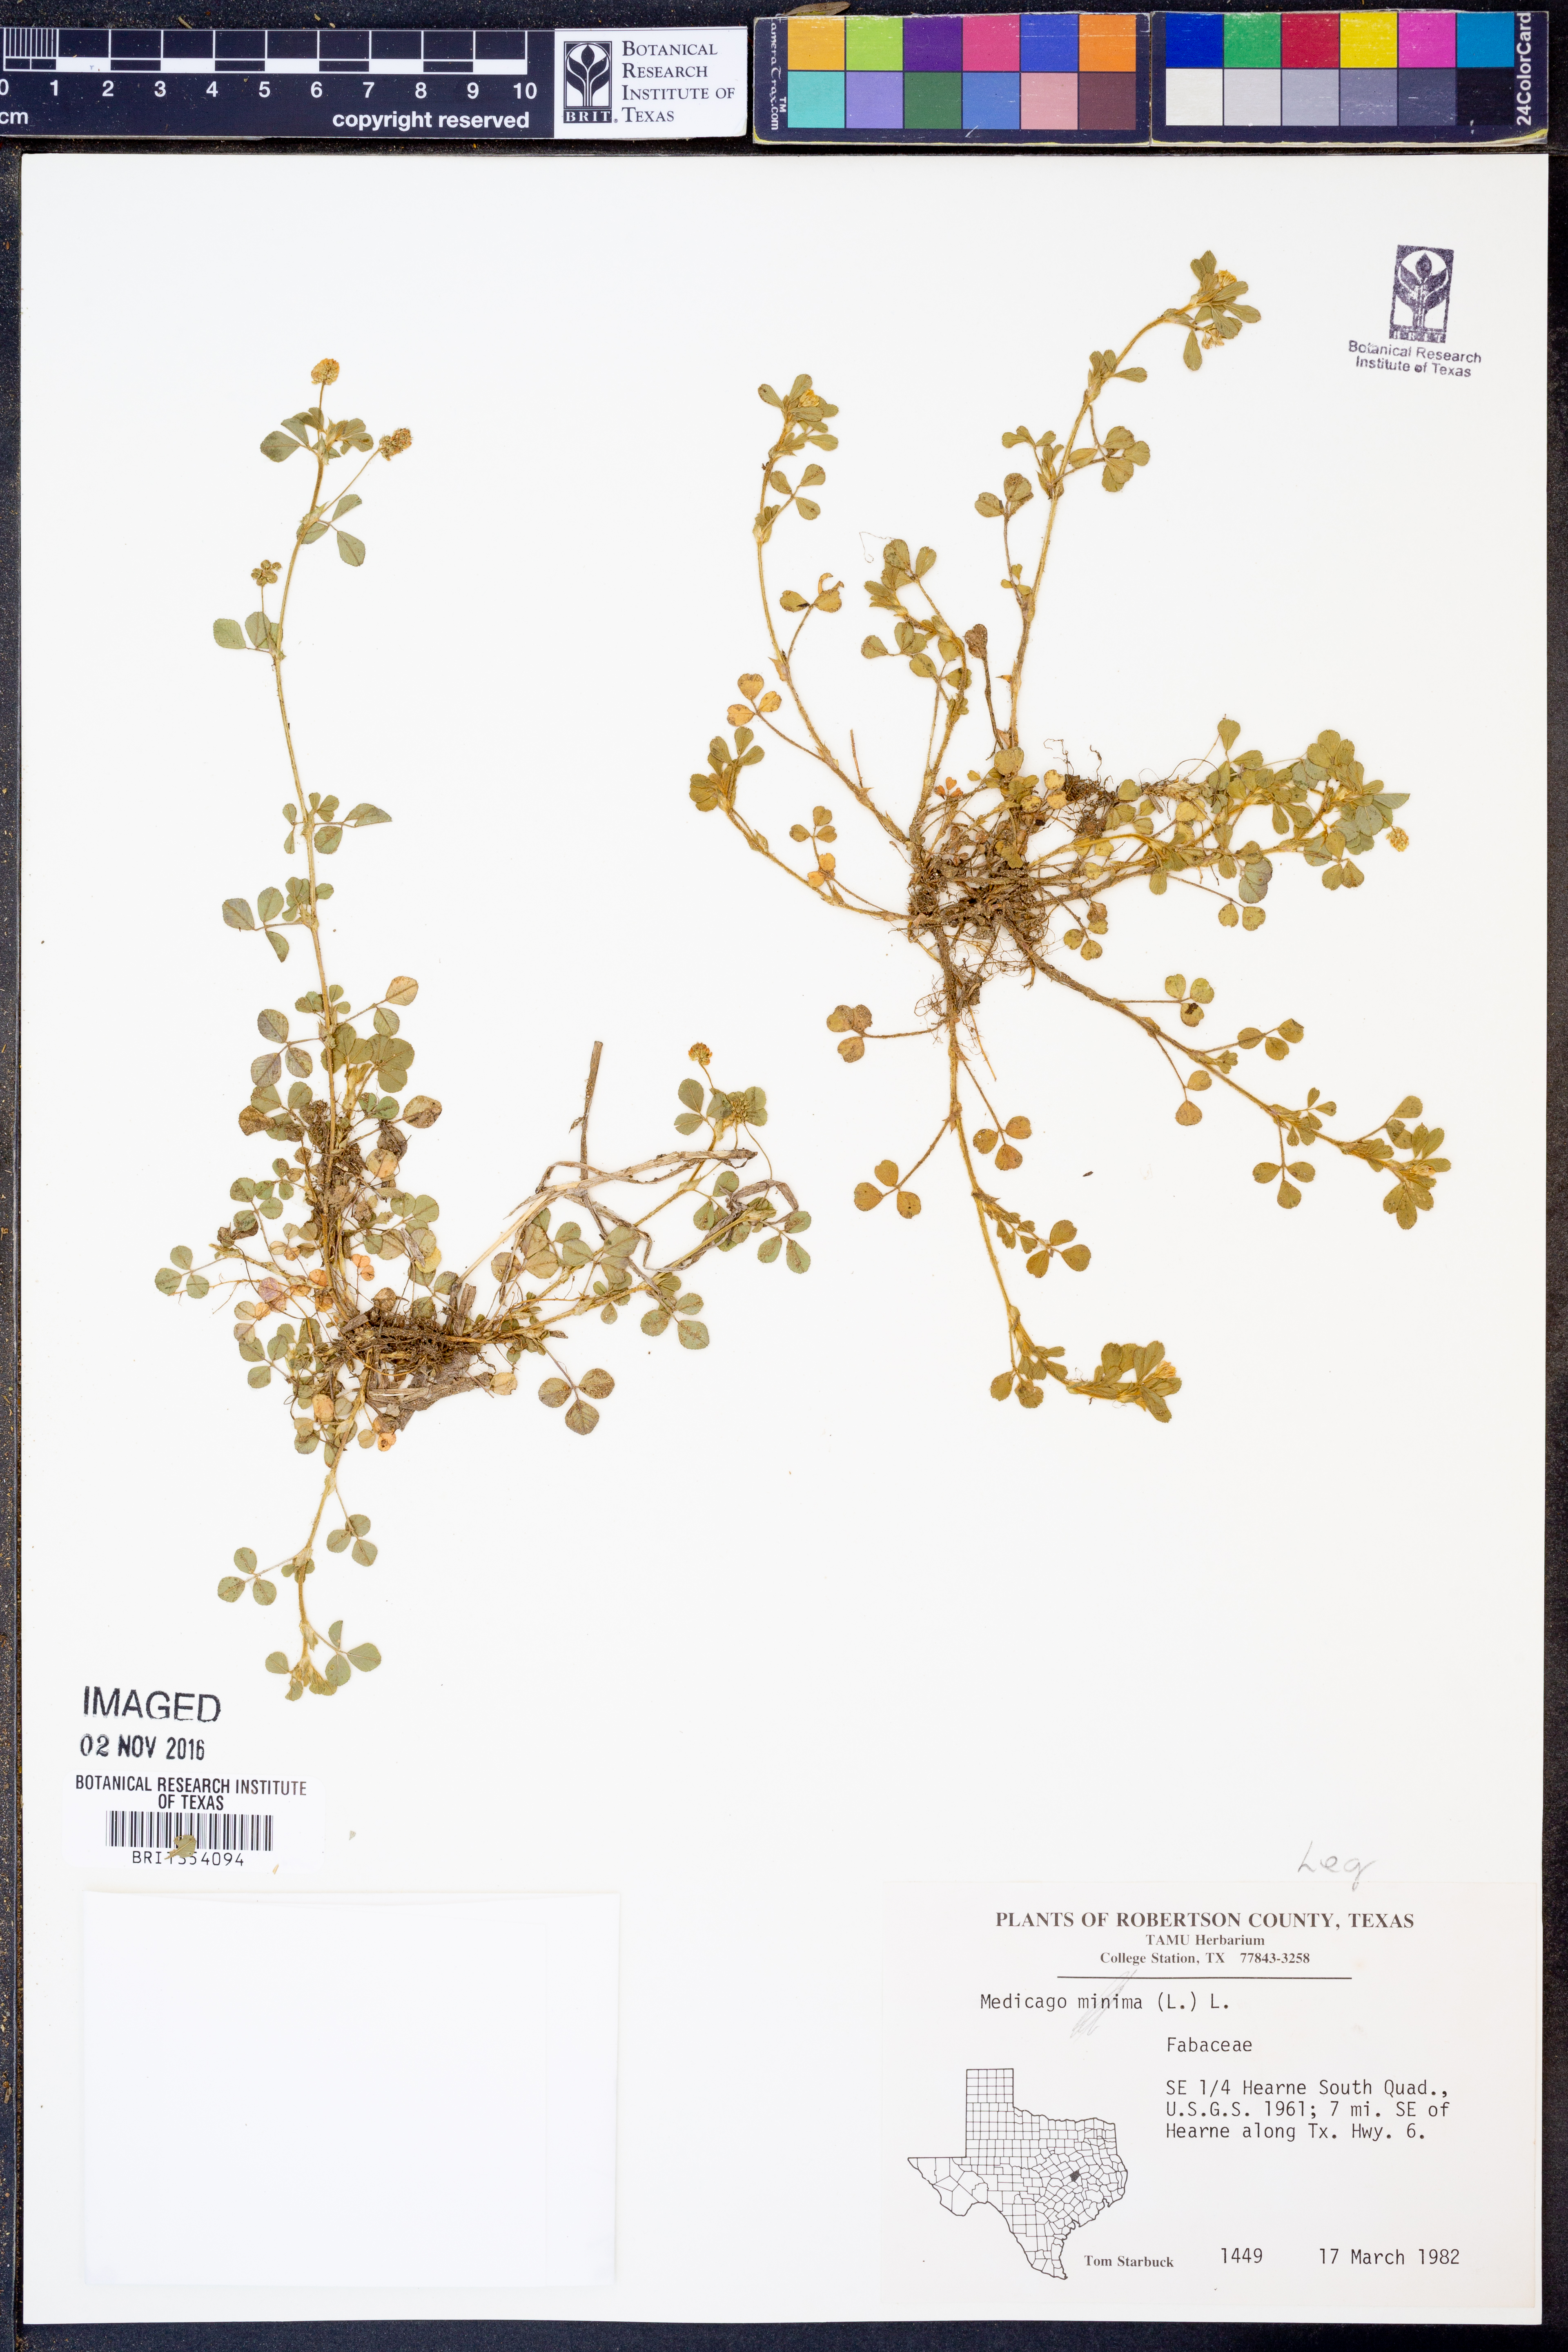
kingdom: Plantae
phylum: Tracheophyta
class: Magnoliopsida
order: Fabales
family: Fabaceae
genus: Medicago
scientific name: Medicago minima
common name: Little bur-clover
